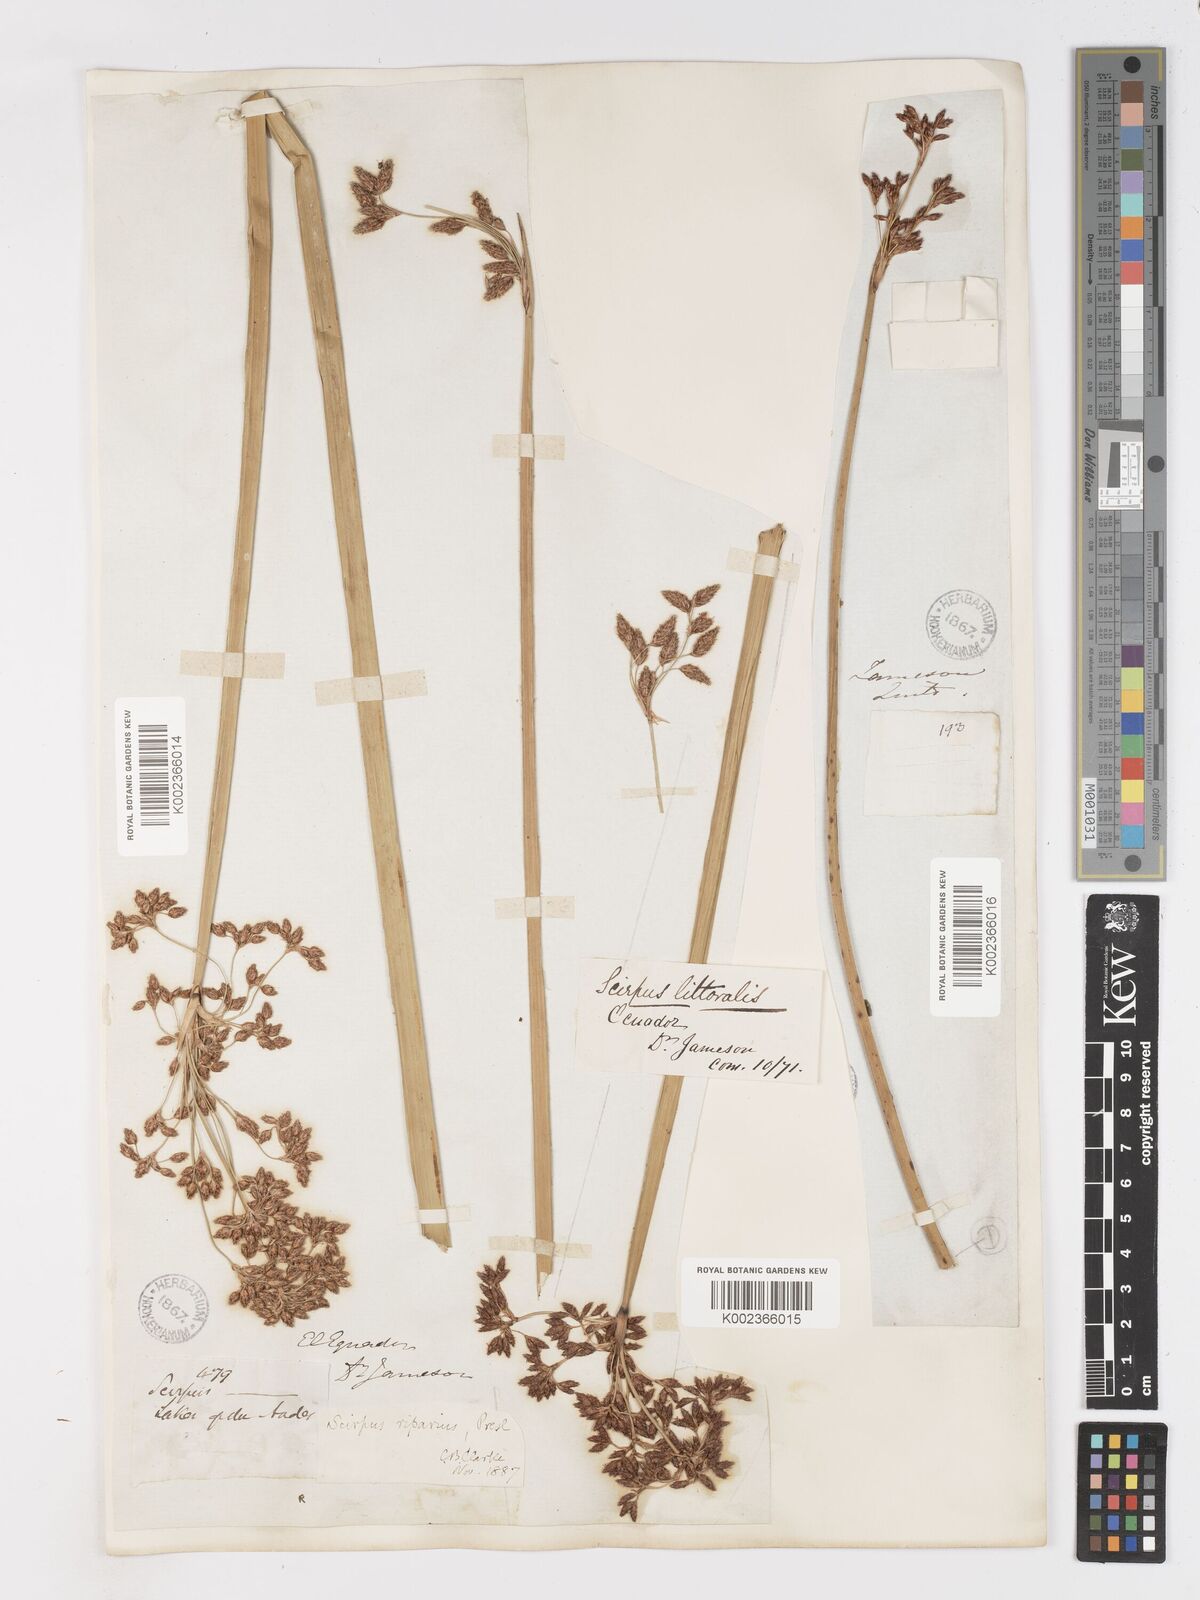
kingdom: Plantae
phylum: Tracheophyta
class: Liliopsida
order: Poales
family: Cyperaceae
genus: Schoenoplectus
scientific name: Schoenoplectus californicus
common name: California bulrush
